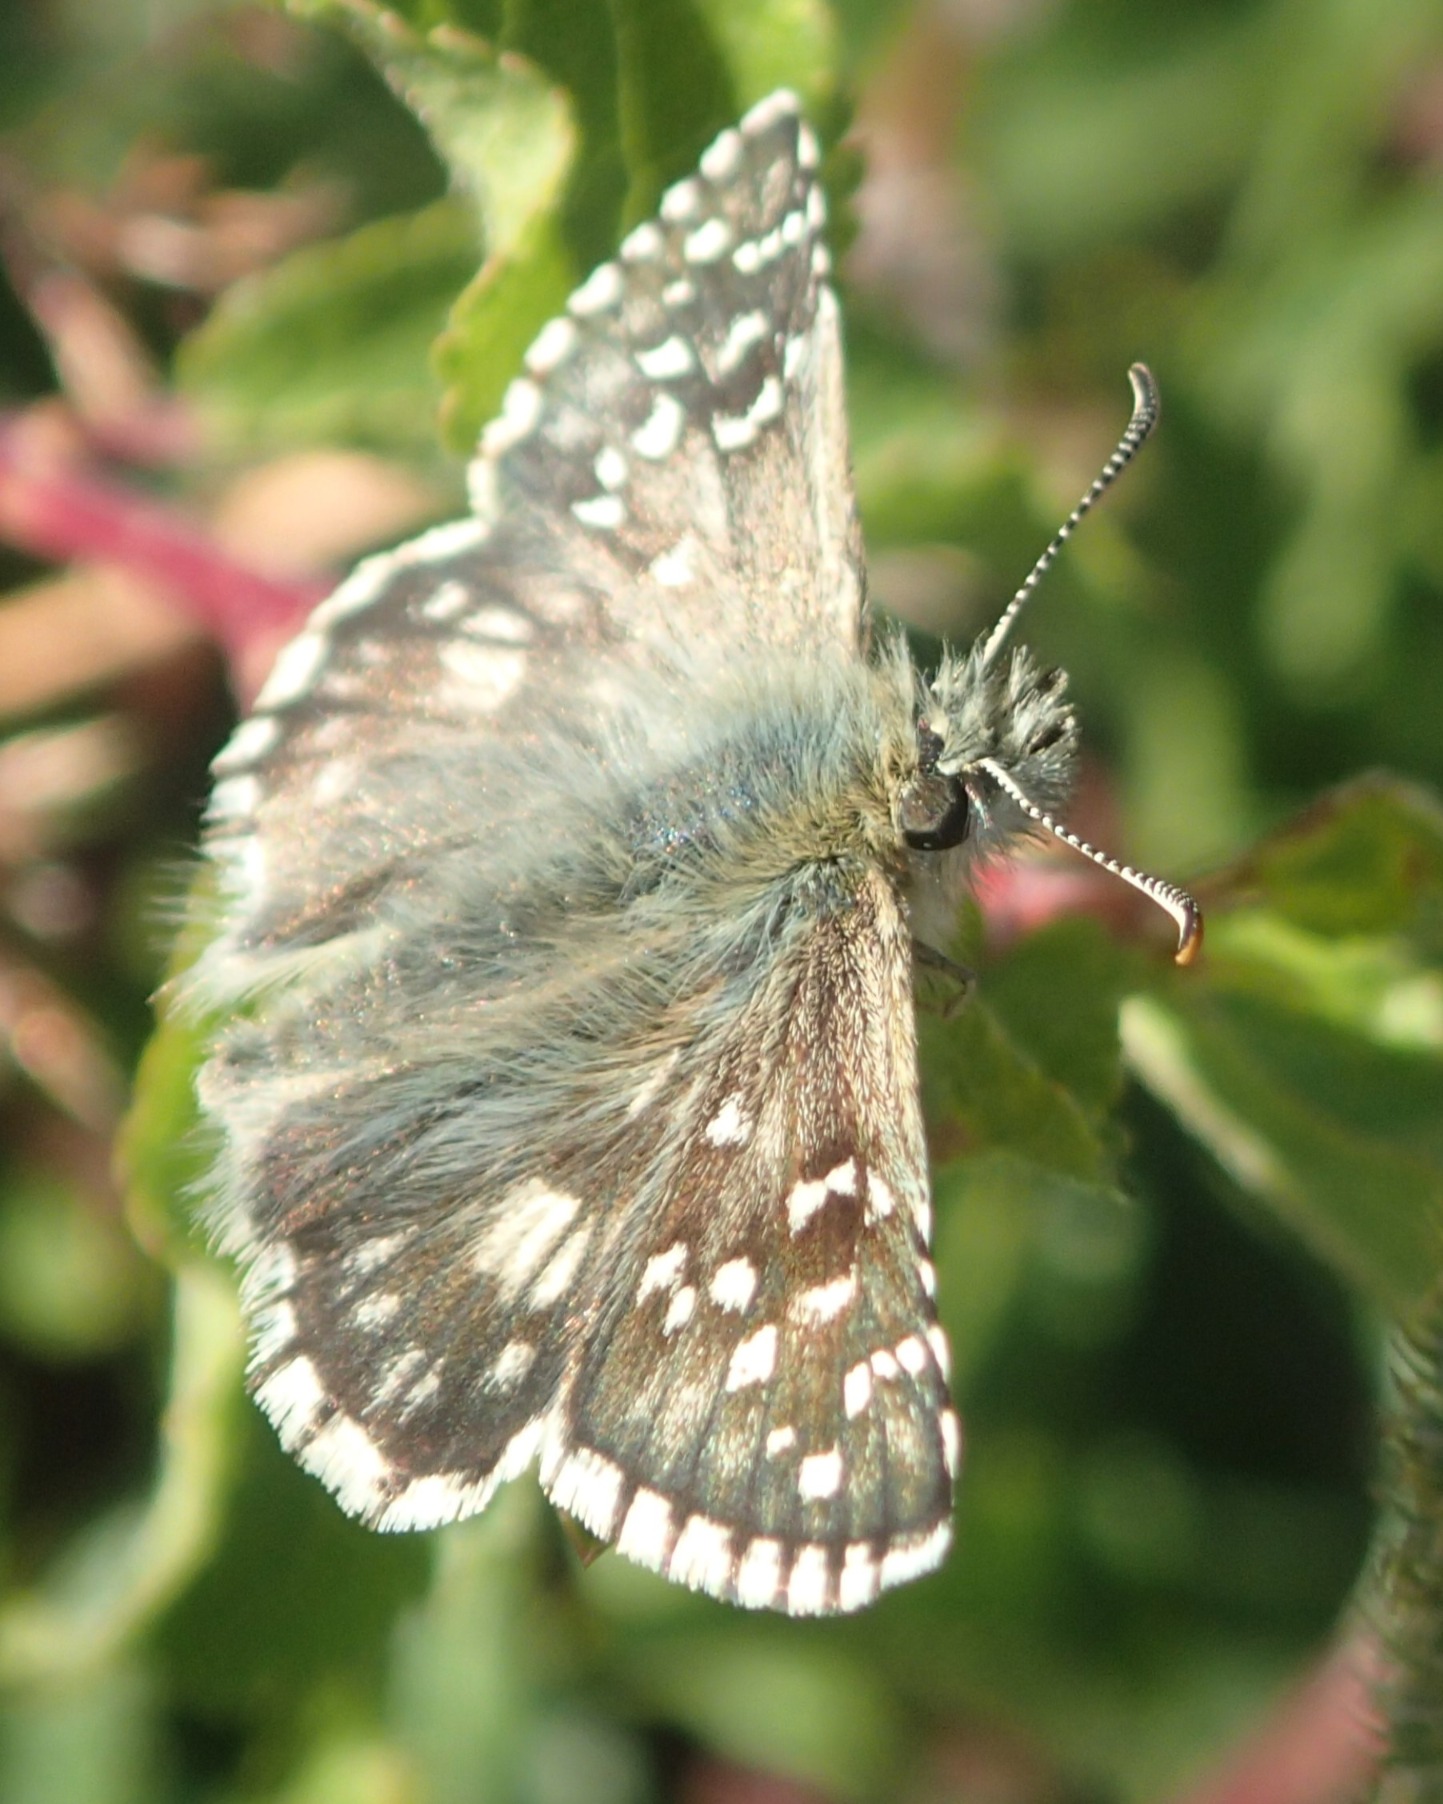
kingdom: Animalia
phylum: Arthropoda
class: Insecta
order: Lepidoptera
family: Hesperiidae
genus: Pyrgus
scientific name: Pyrgus armoricanus
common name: Fransk bredpande
